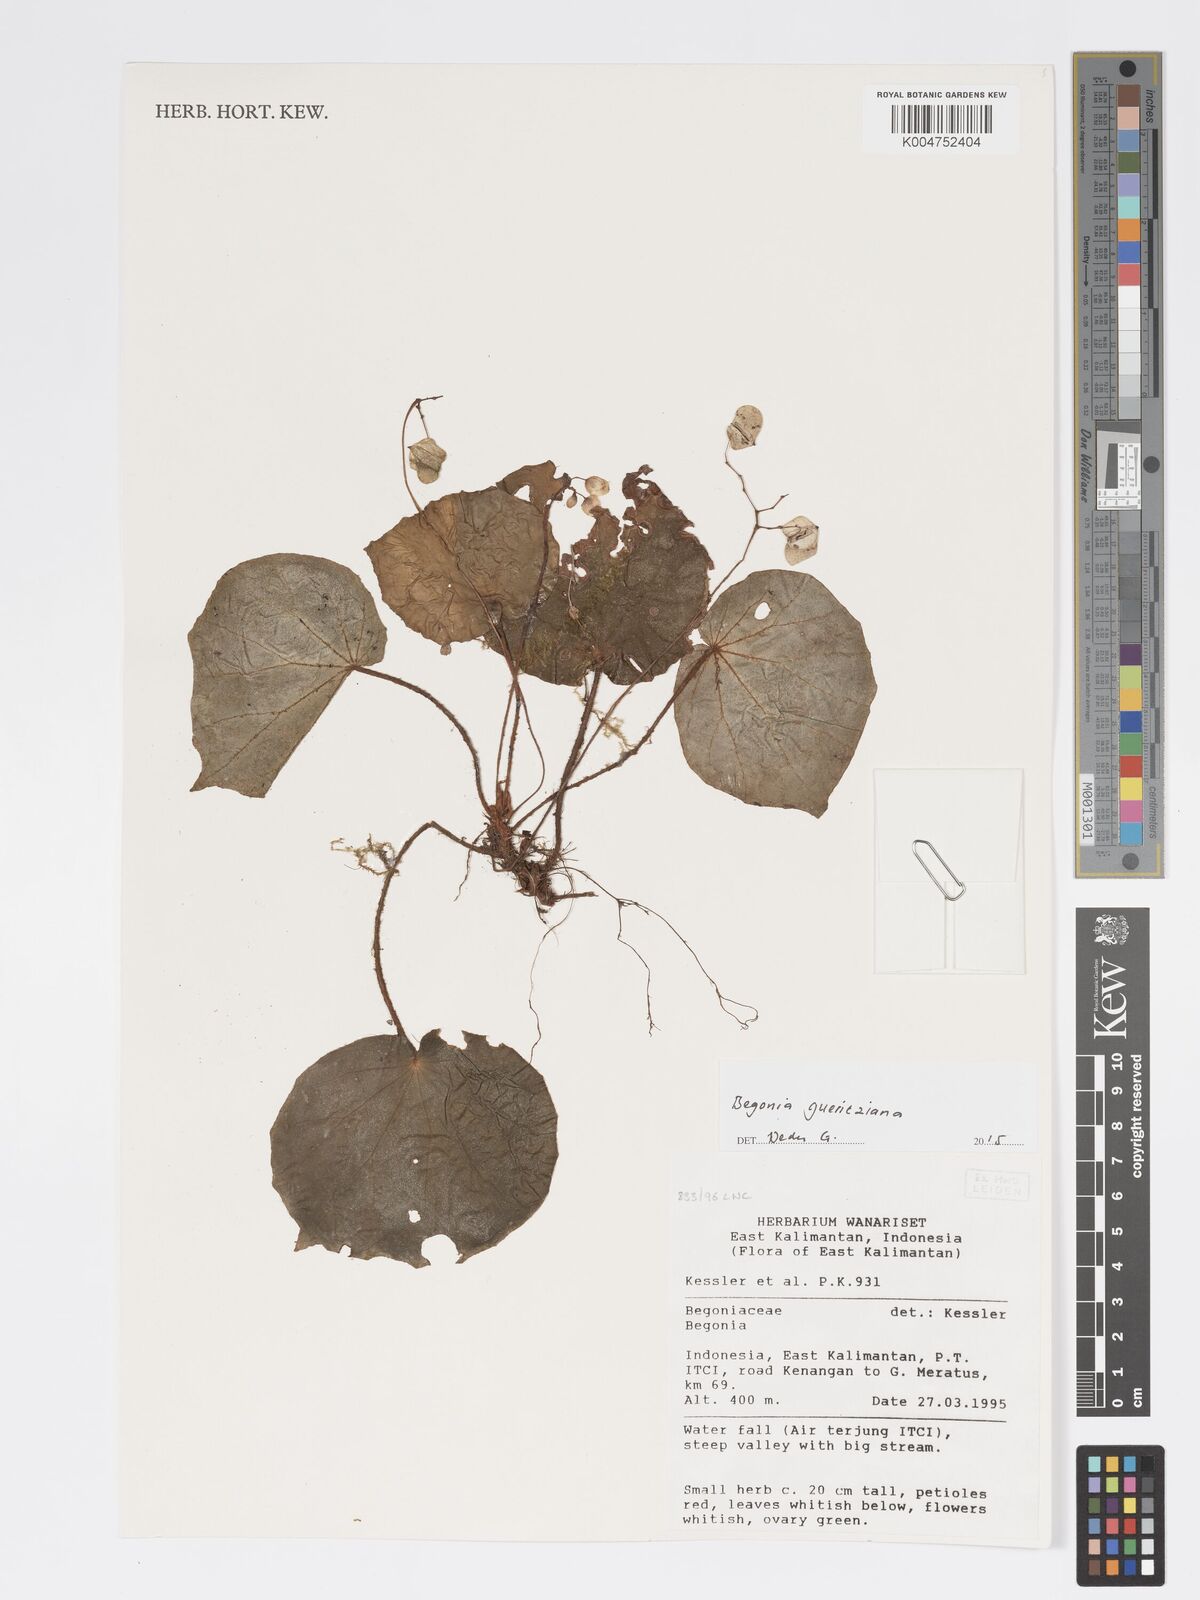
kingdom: Plantae
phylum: Tracheophyta
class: Magnoliopsida
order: Cucurbitales
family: Begoniaceae
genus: Begonia
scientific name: Begonia gueritziana
